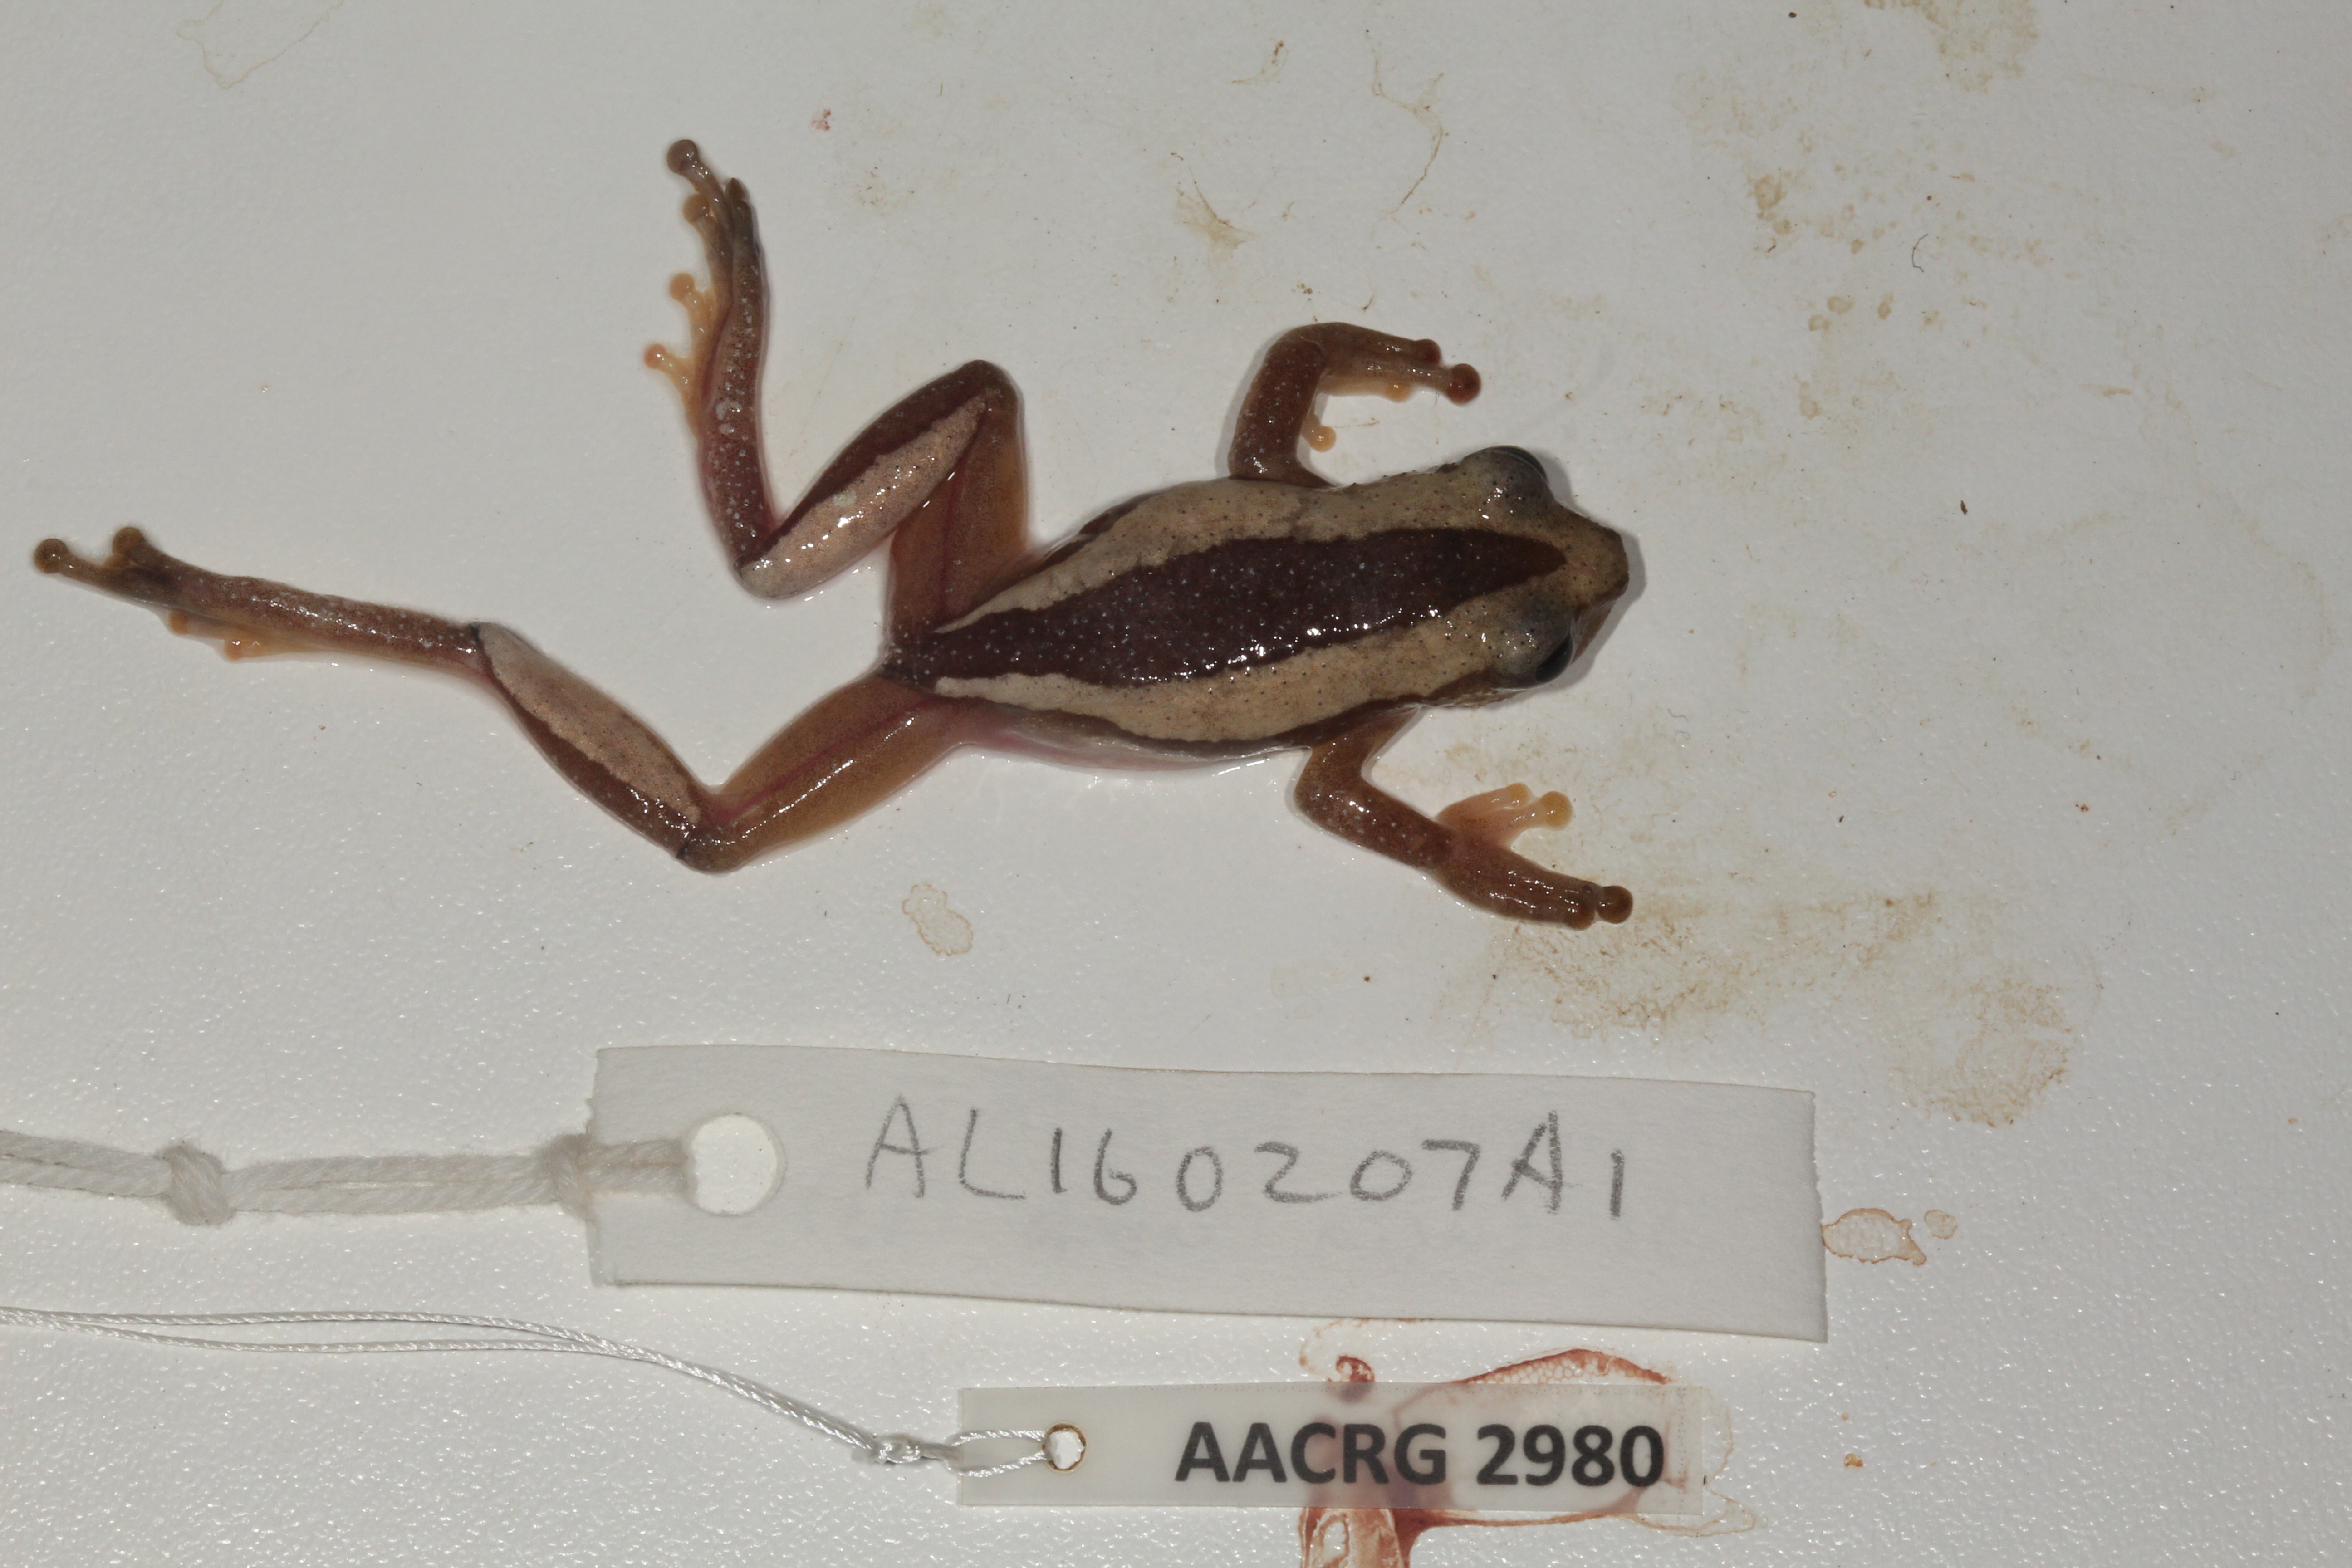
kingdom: Animalia
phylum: Chordata
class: Amphibia
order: Anura
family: Hyperoliidae
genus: Afrixalus
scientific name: Afrixalus fornasini
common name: Fornasini's spiny reed frog
